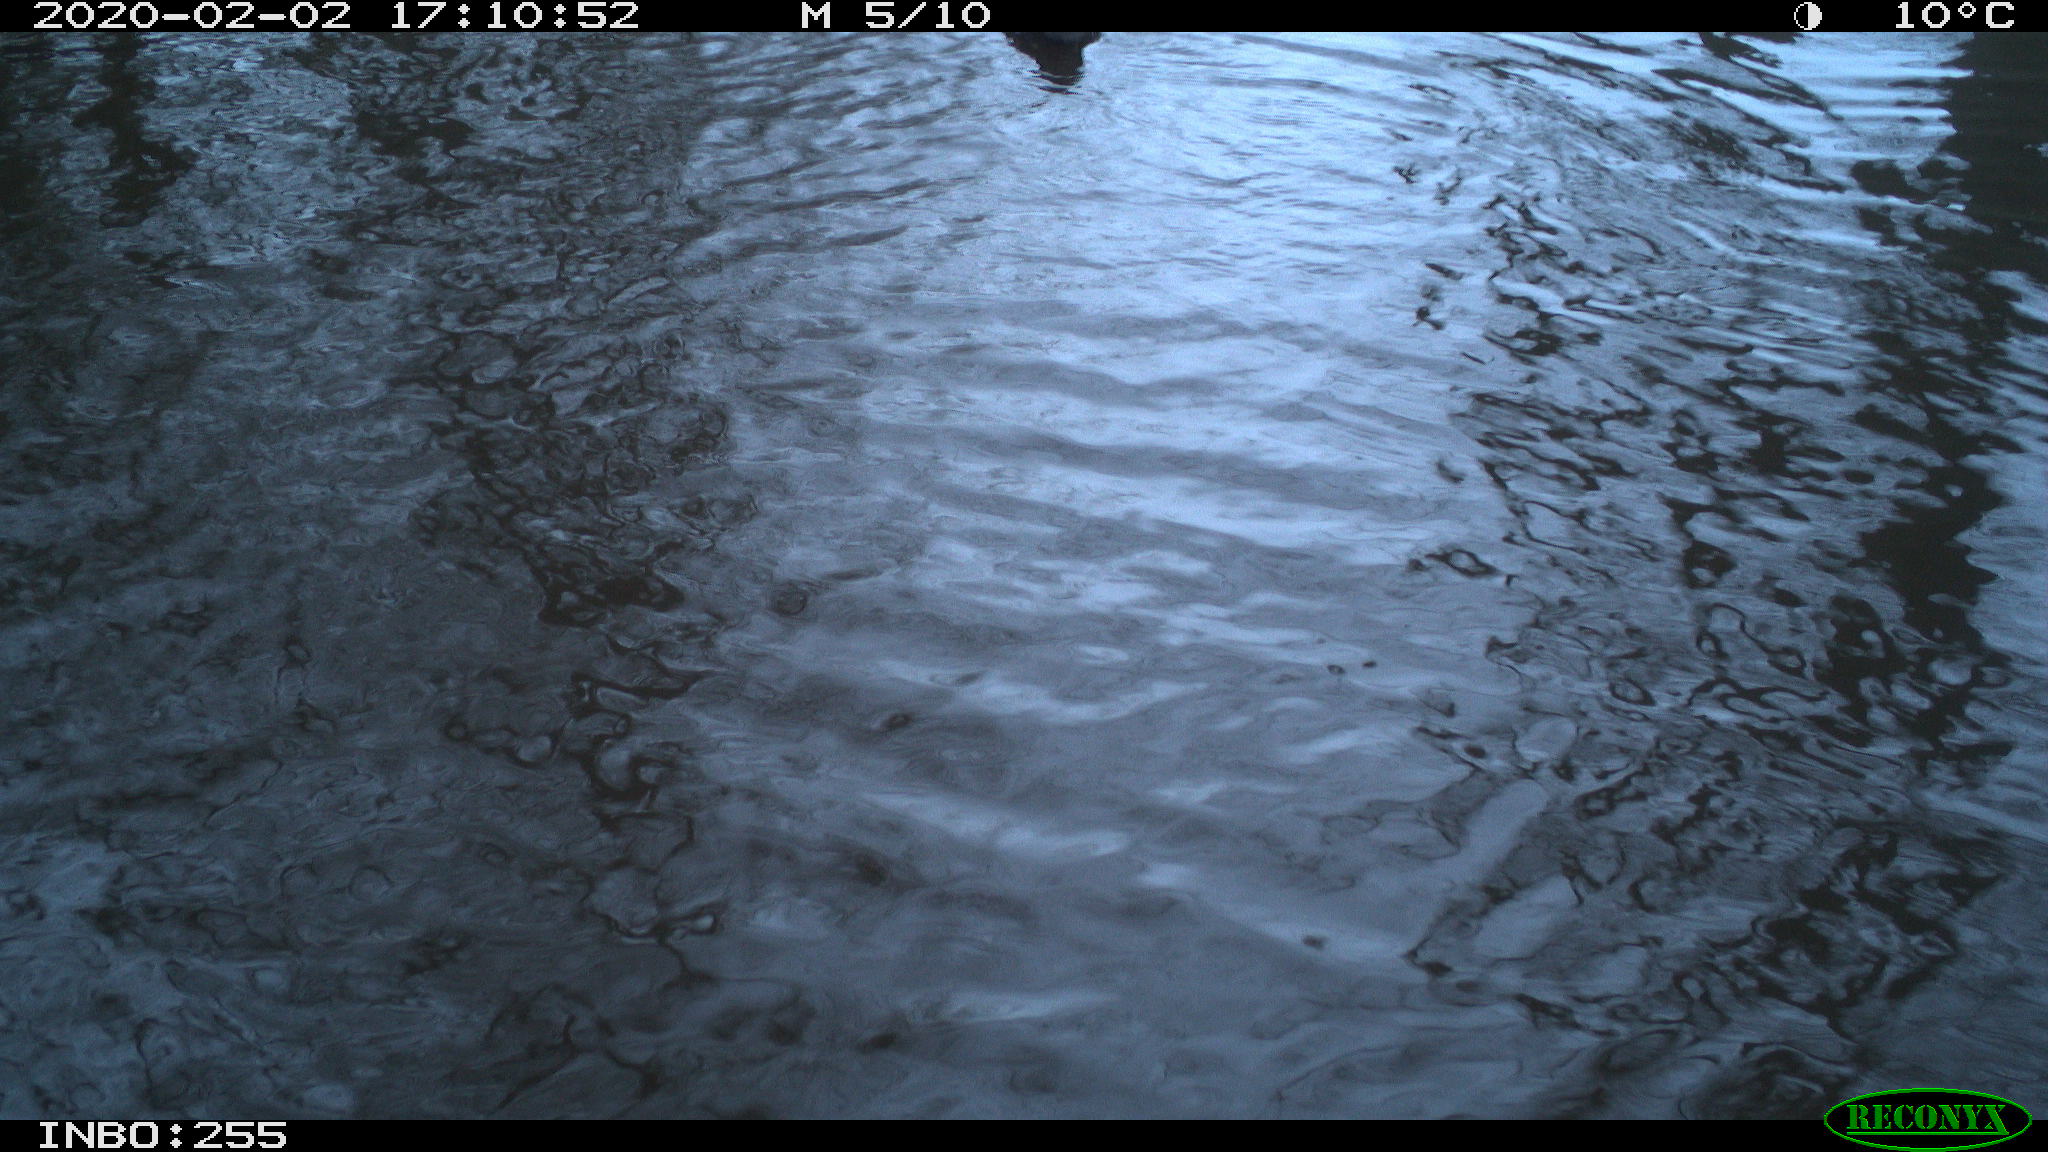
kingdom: Animalia
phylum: Chordata
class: Aves
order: Gruiformes
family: Rallidae
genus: Gallinula
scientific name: Gallinula chloropus
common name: Common moorhen
